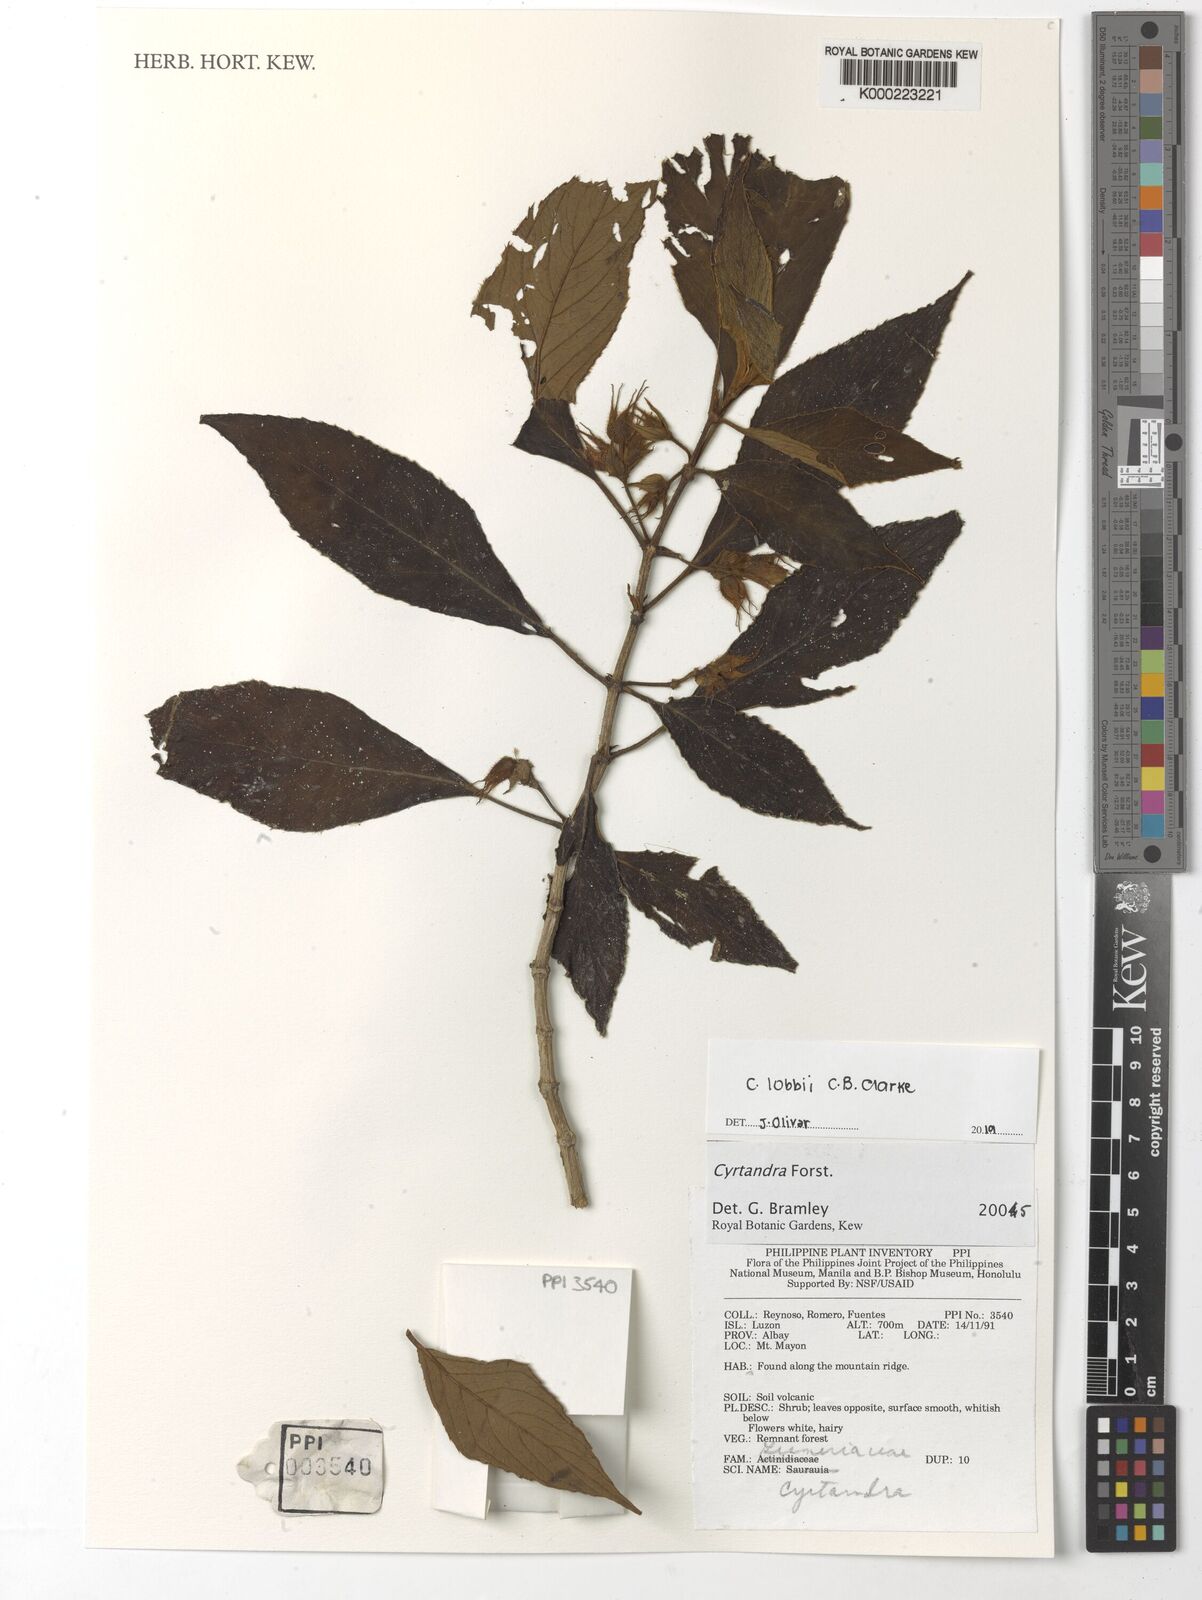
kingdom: Plantae
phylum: Tracheophyta
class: Magnoliopsida
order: Lamiales
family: Gesneriaceae
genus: Cyrtandra
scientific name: Cyrtandra
